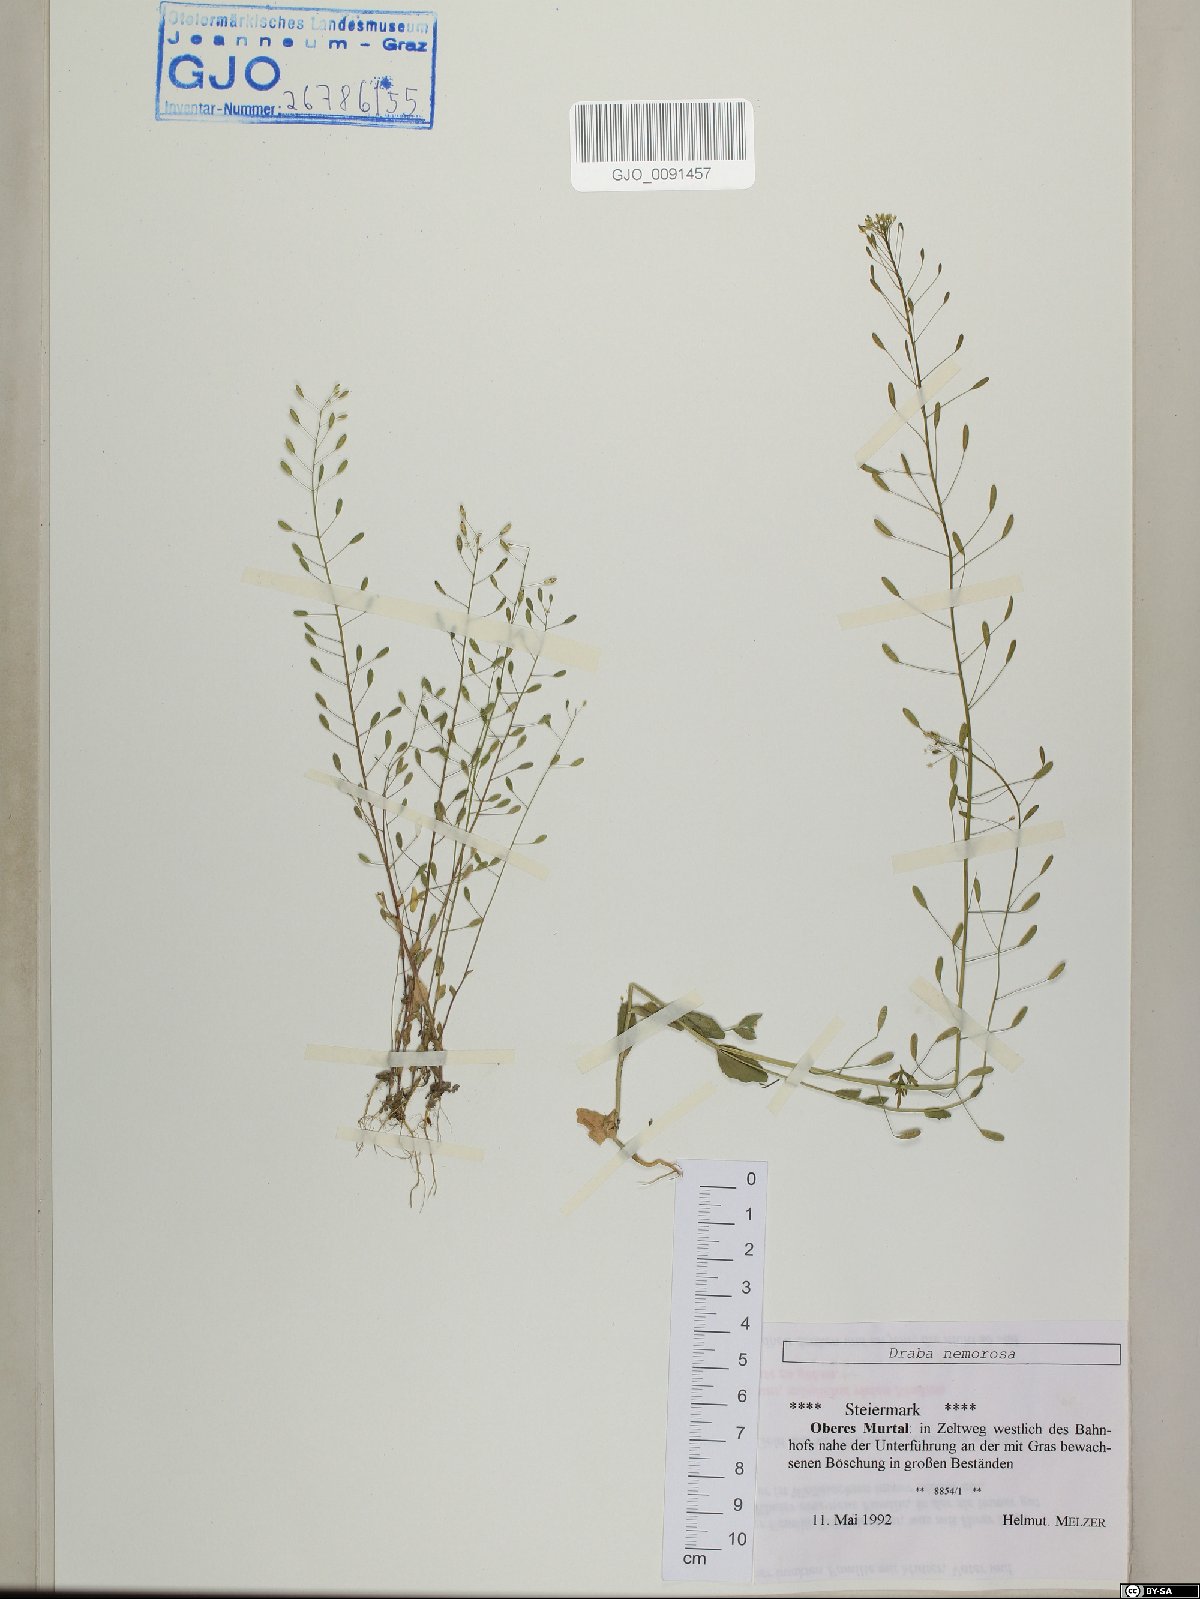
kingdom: Plantae
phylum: Tracheophyta
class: Magnoliopsida
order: Brassicales
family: Brassicaceae
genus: Draba
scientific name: Draba nemorosa
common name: Wood whitlow-grass
